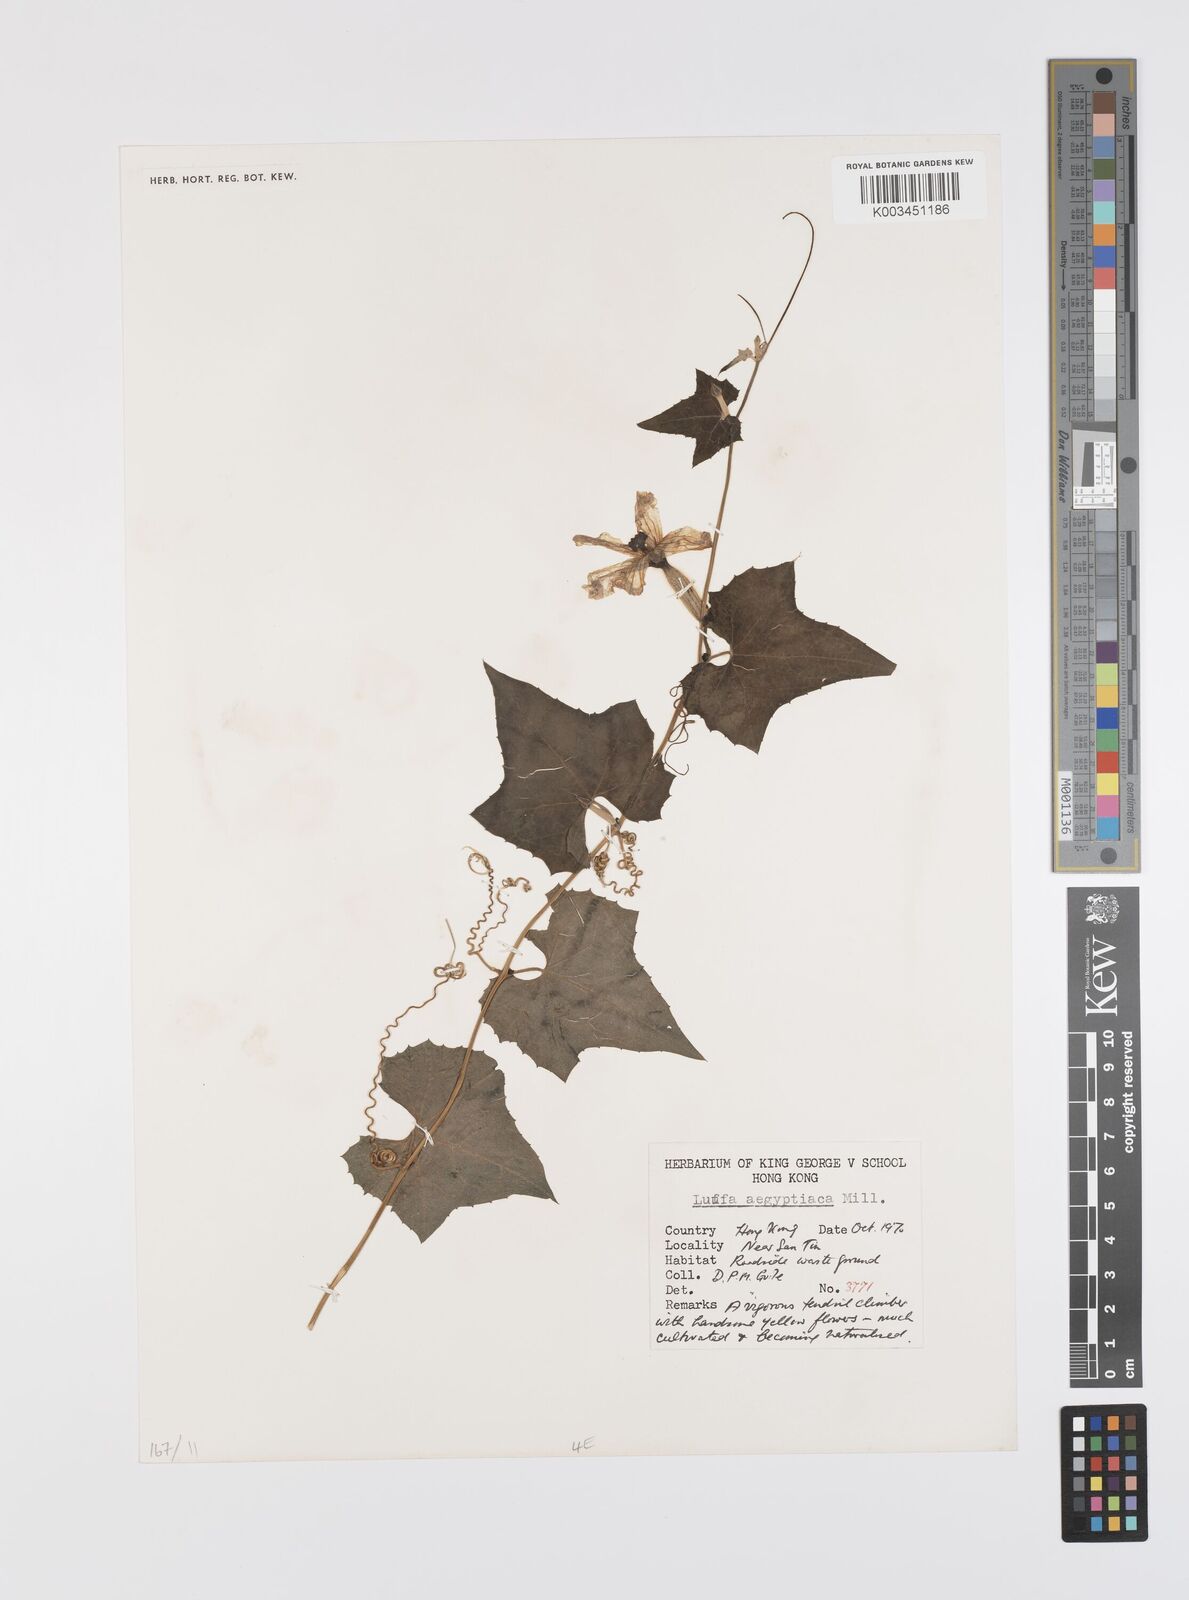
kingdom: Plantae
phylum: Tracheophyta
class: Magnoliopsida
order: Cucurbitales
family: Cucurbitaceae
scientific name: Cucurbitaceae
